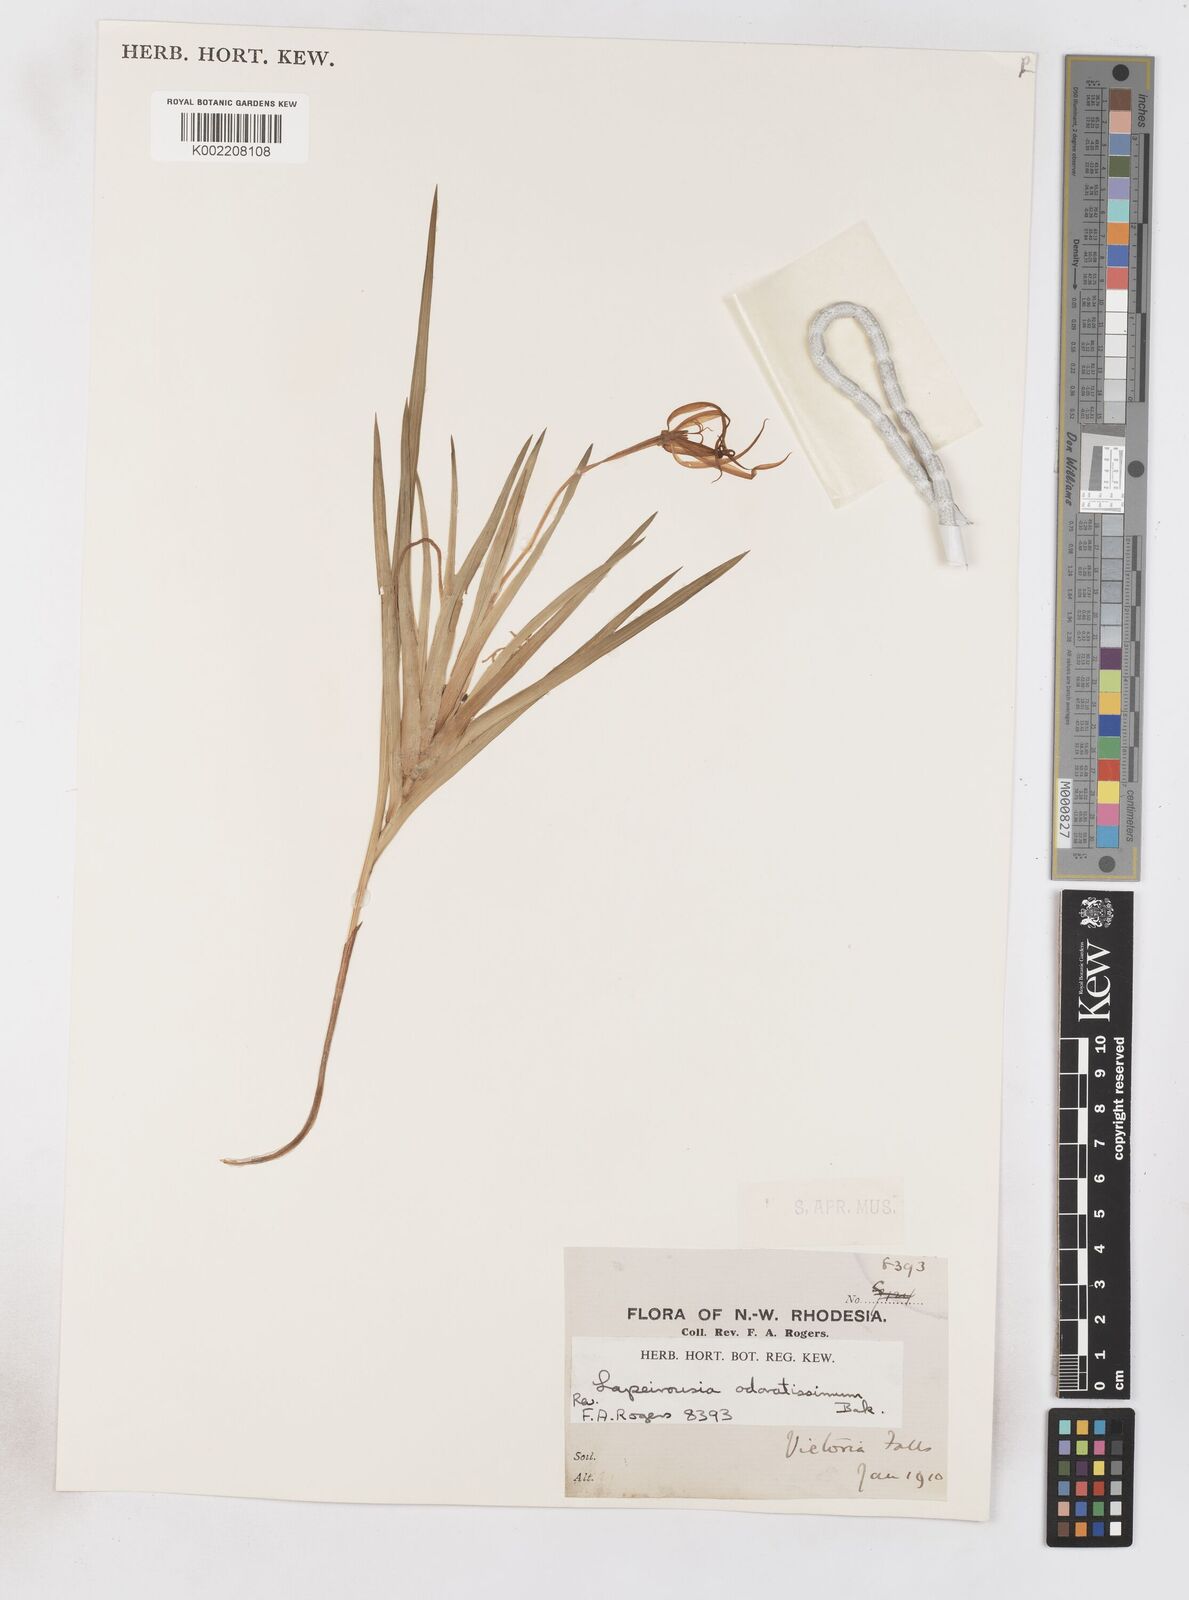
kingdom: Plantae
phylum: Tracheophyta
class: Liliopsida
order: Asparagales
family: Iridaceae
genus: Lapeirousia
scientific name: Lapeirousia odoratissima
